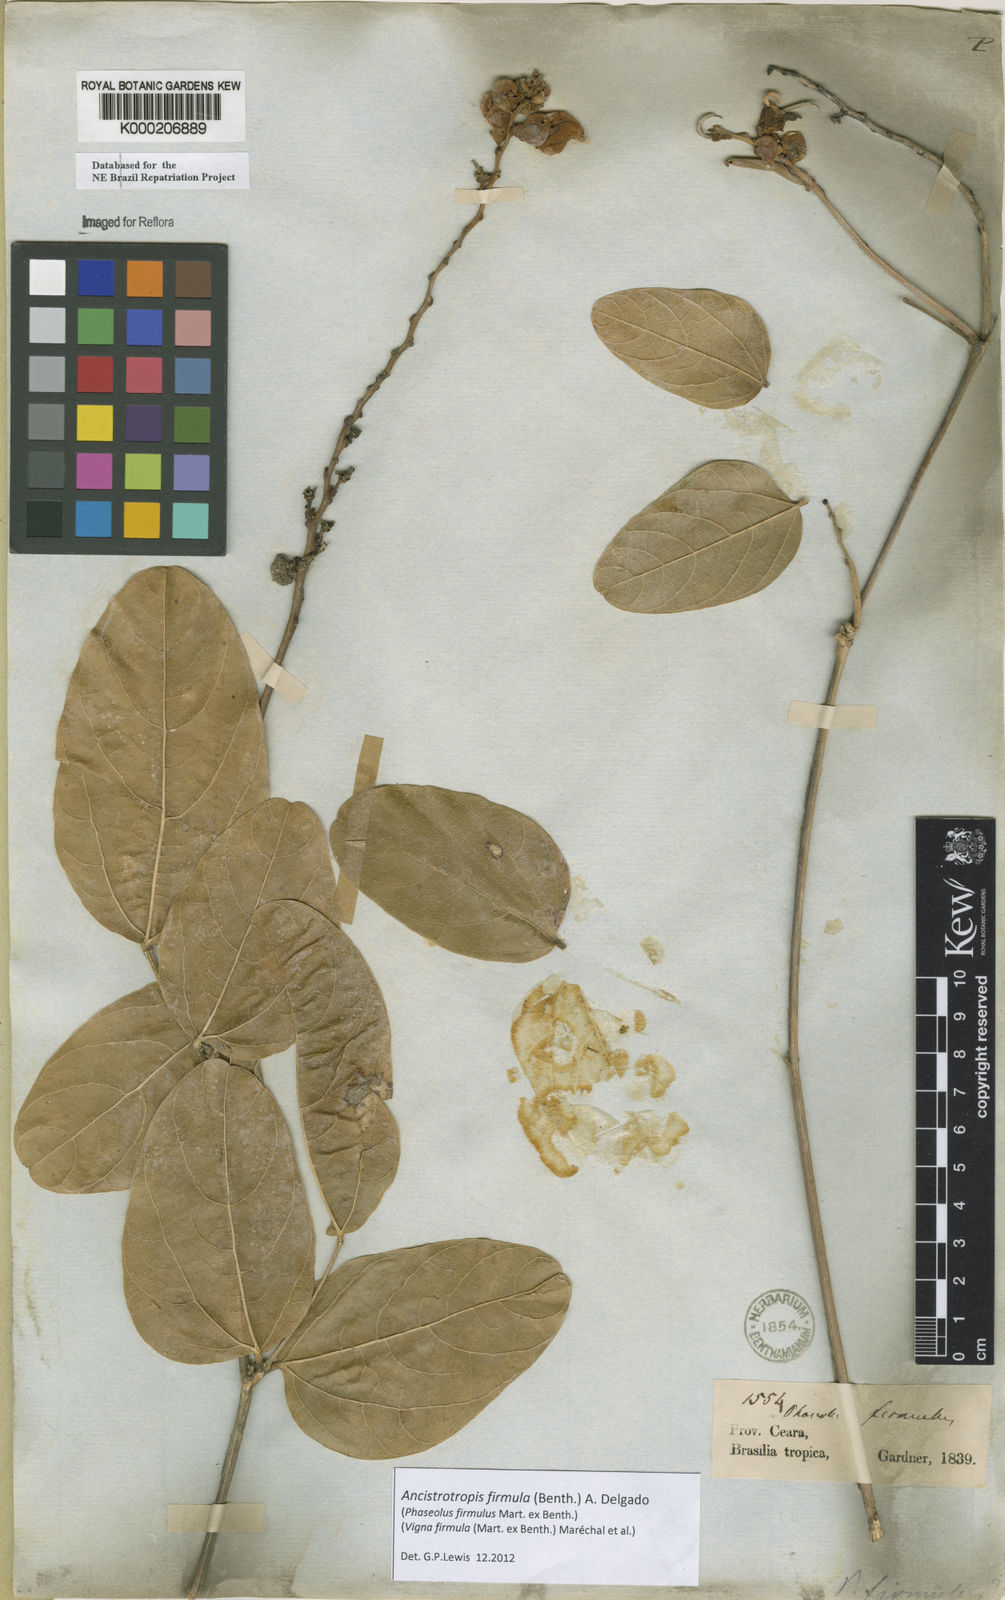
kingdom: Plantae
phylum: Tracheophyta
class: Magnoliopsida
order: Fabales
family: Fabaceae
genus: Vigna
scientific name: Vigna
